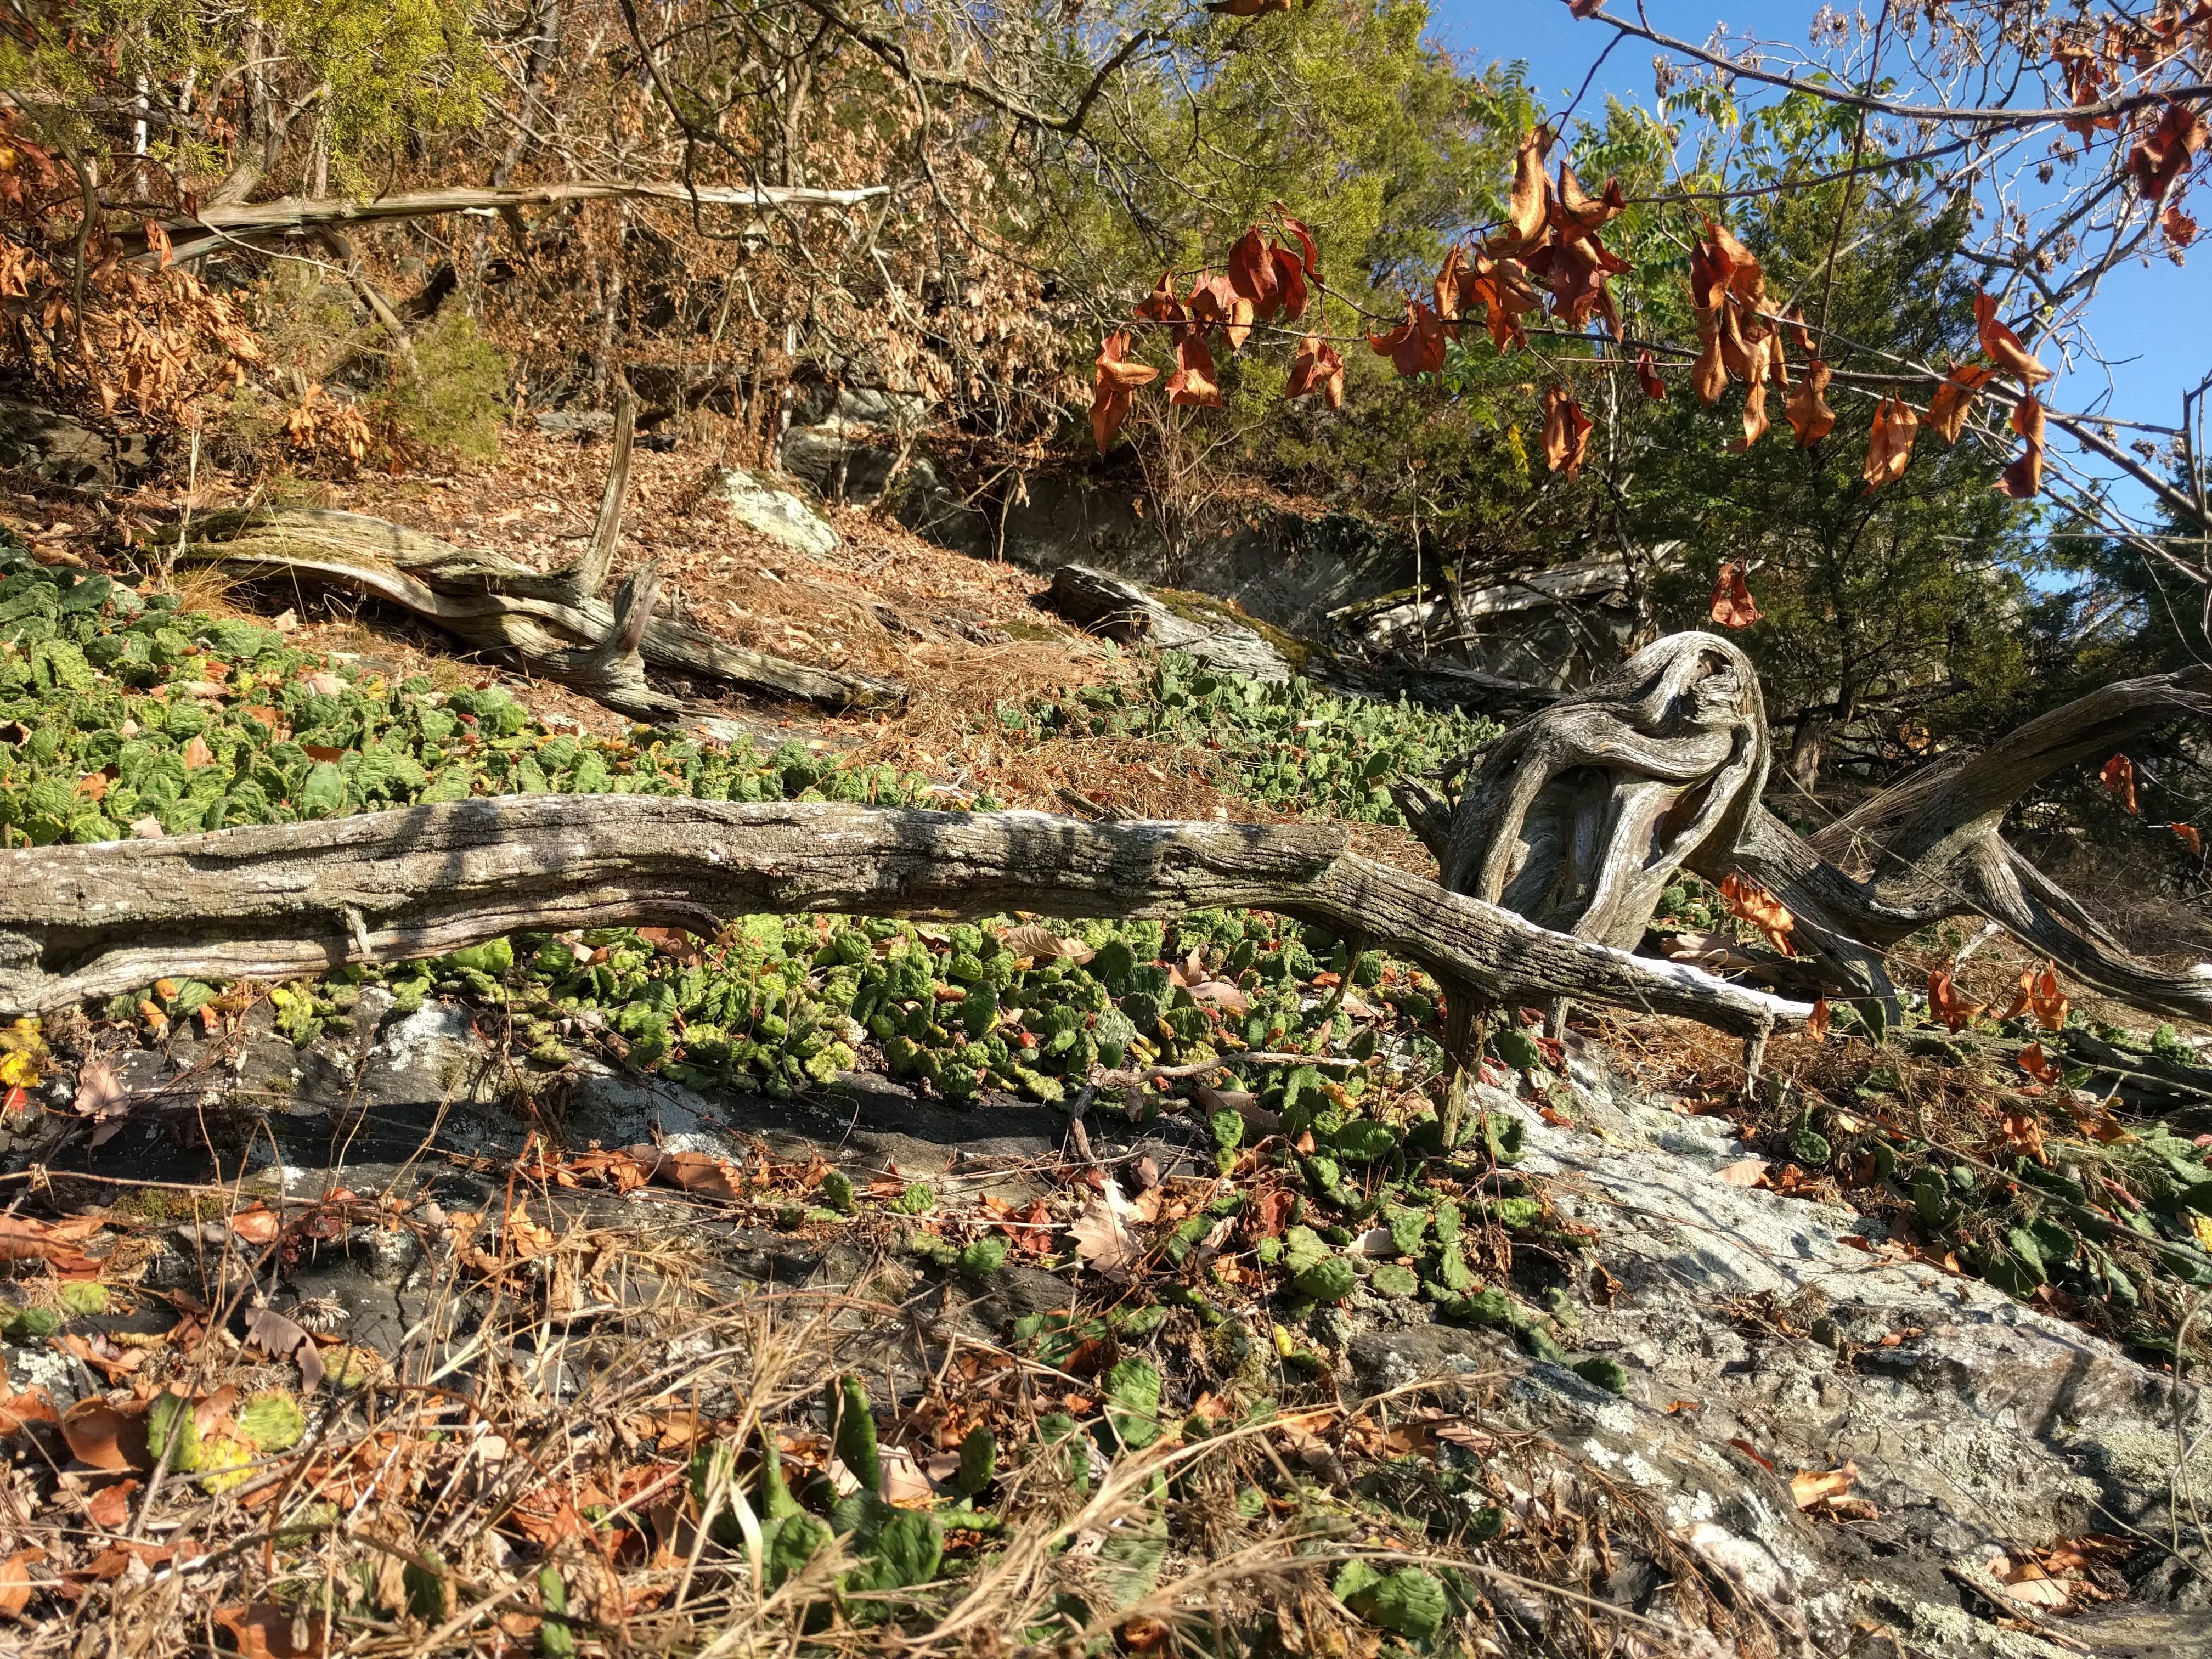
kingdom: Plantae
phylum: Tracheophyta
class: Magnoliopsida
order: Caryophyllales
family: Cactaceae
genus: Opuntia
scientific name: Opuntia humifusa
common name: Eastern prickly-pear
